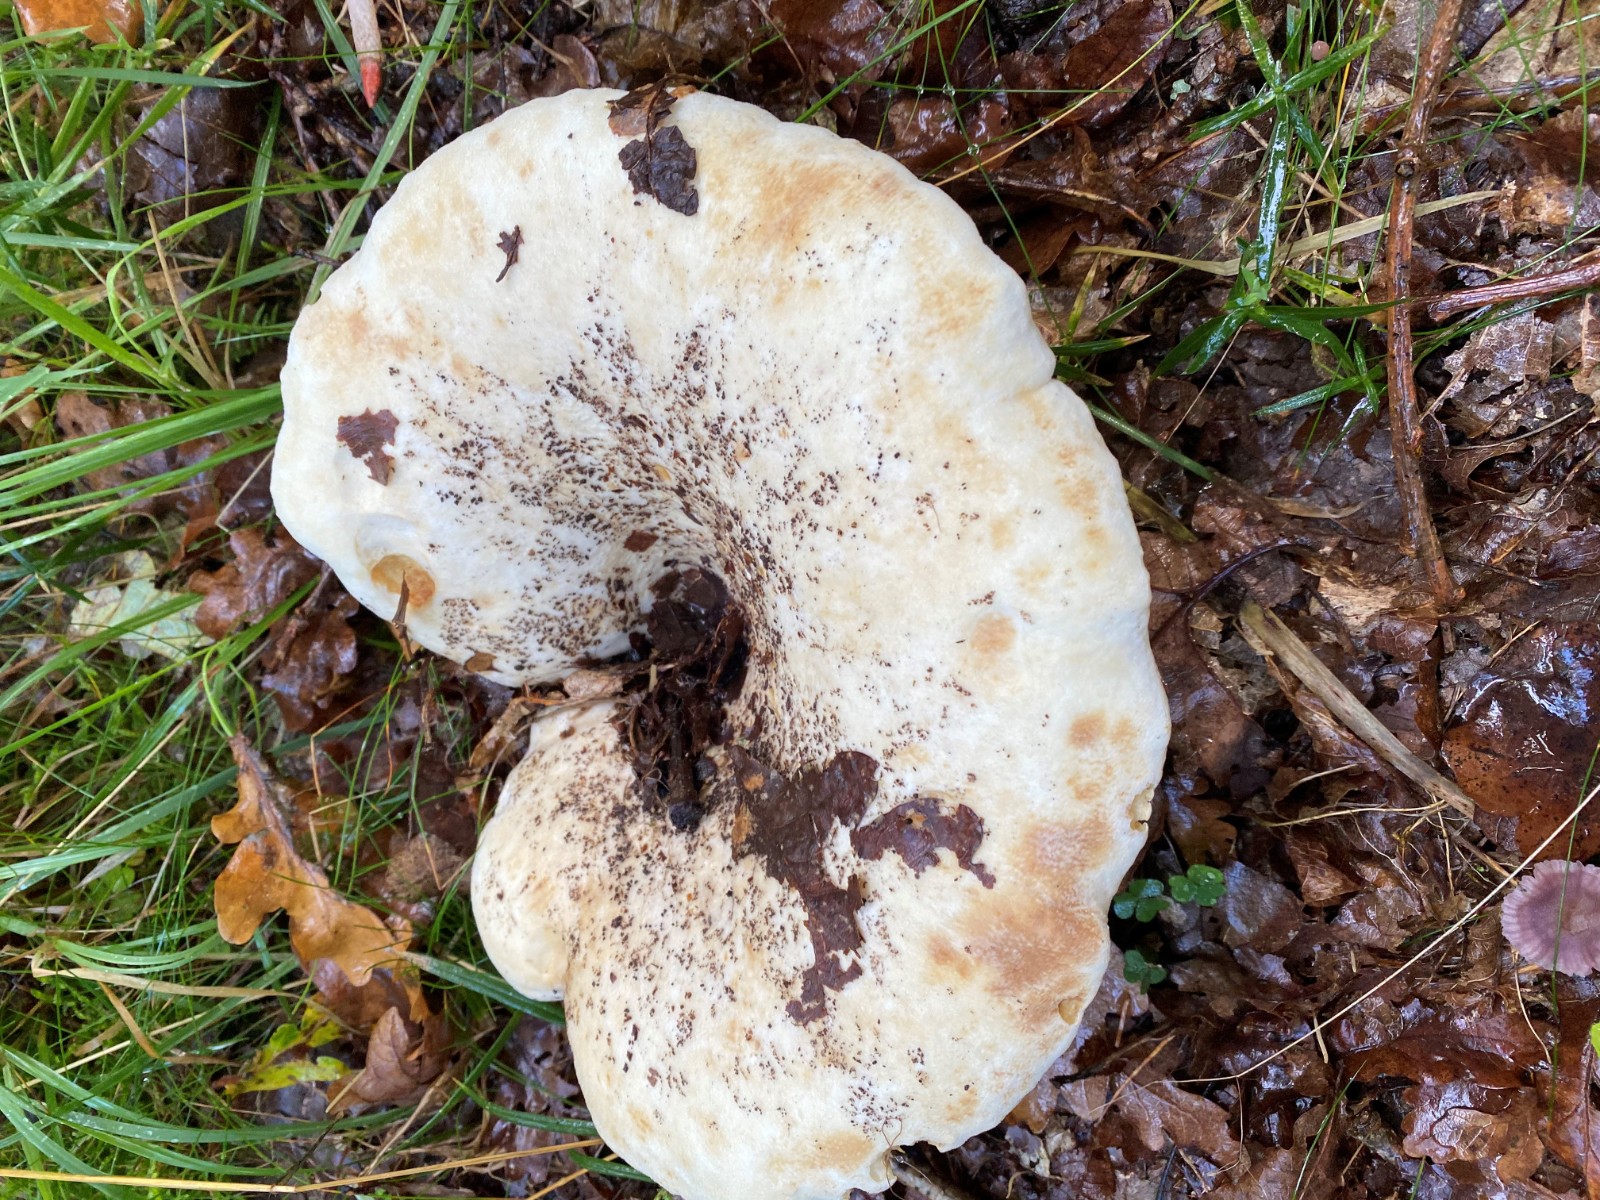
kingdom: Fungi
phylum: Basidiomycota
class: Agaricomycetes
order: Russulales
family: Russulaceae
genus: Lactifluus
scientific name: Lactifluus vellereus
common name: hvidfiltet mælkehat
